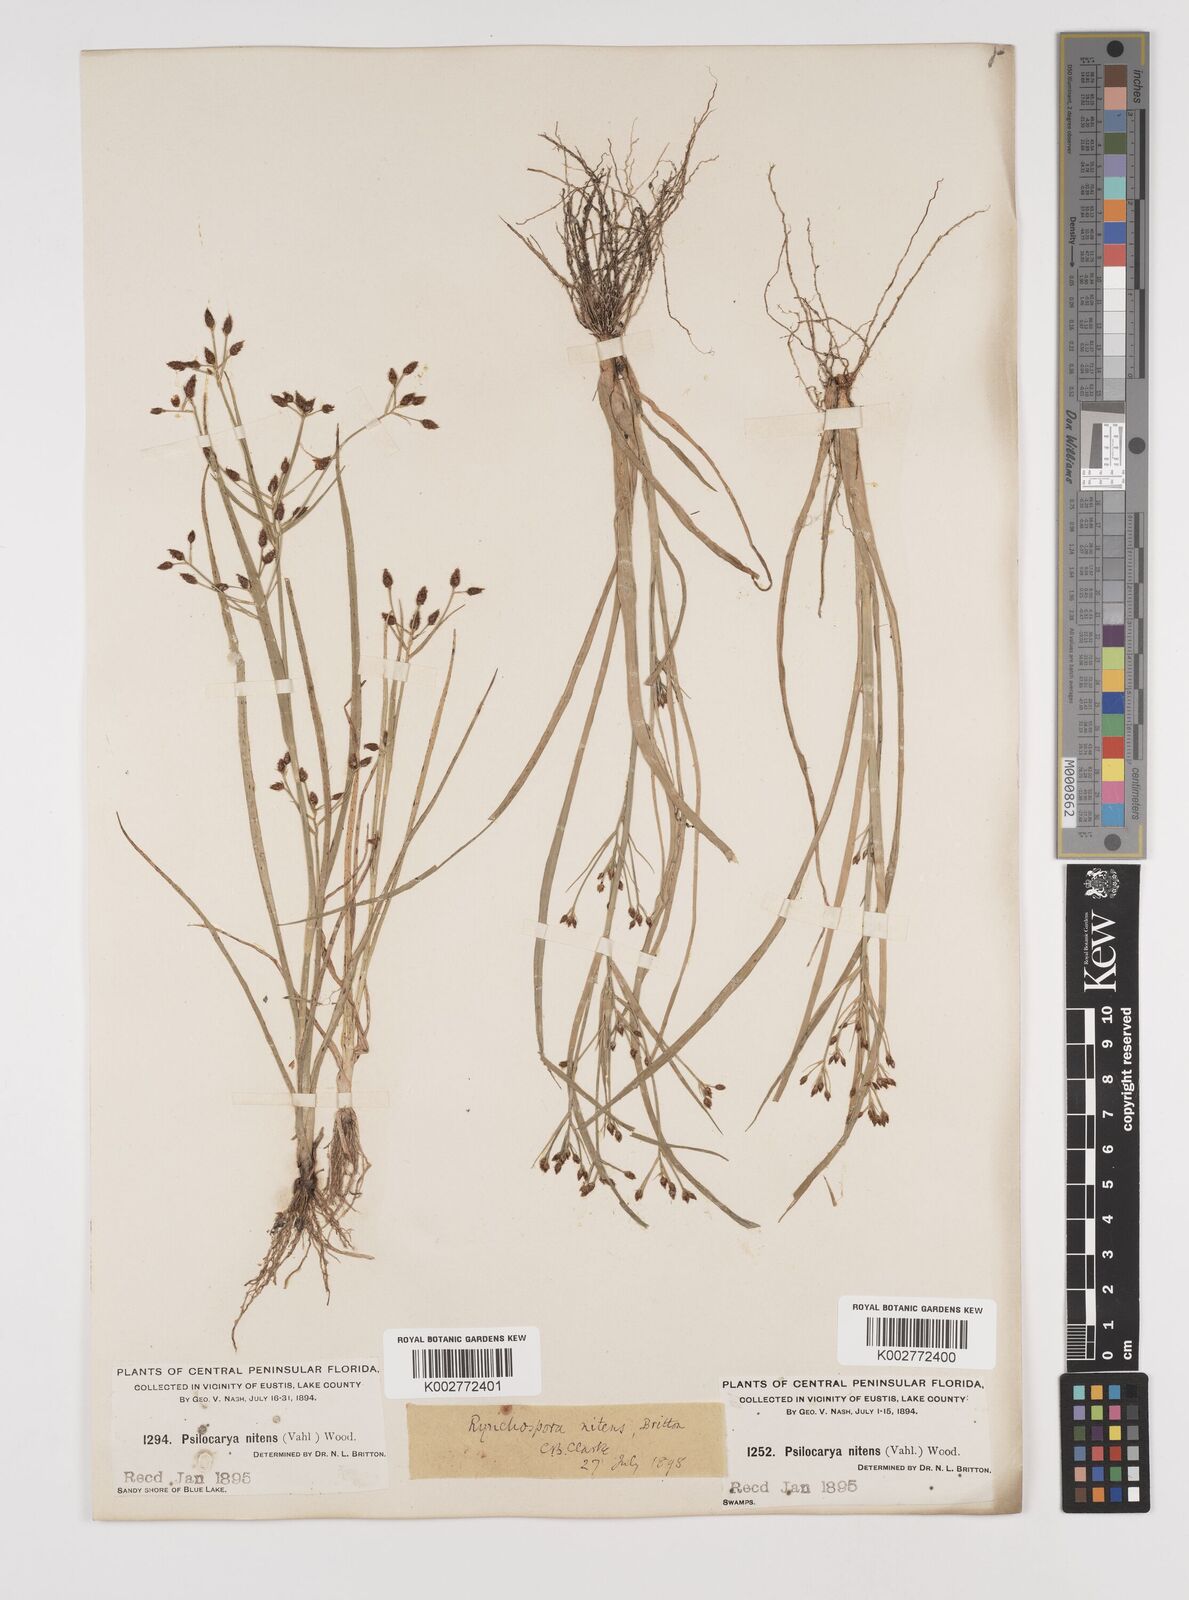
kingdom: Plantae
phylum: Tracheophyta
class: Liliopsida
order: Poales
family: Cyperaceae
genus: Rhynchospora
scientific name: Rhynchospora nitens
